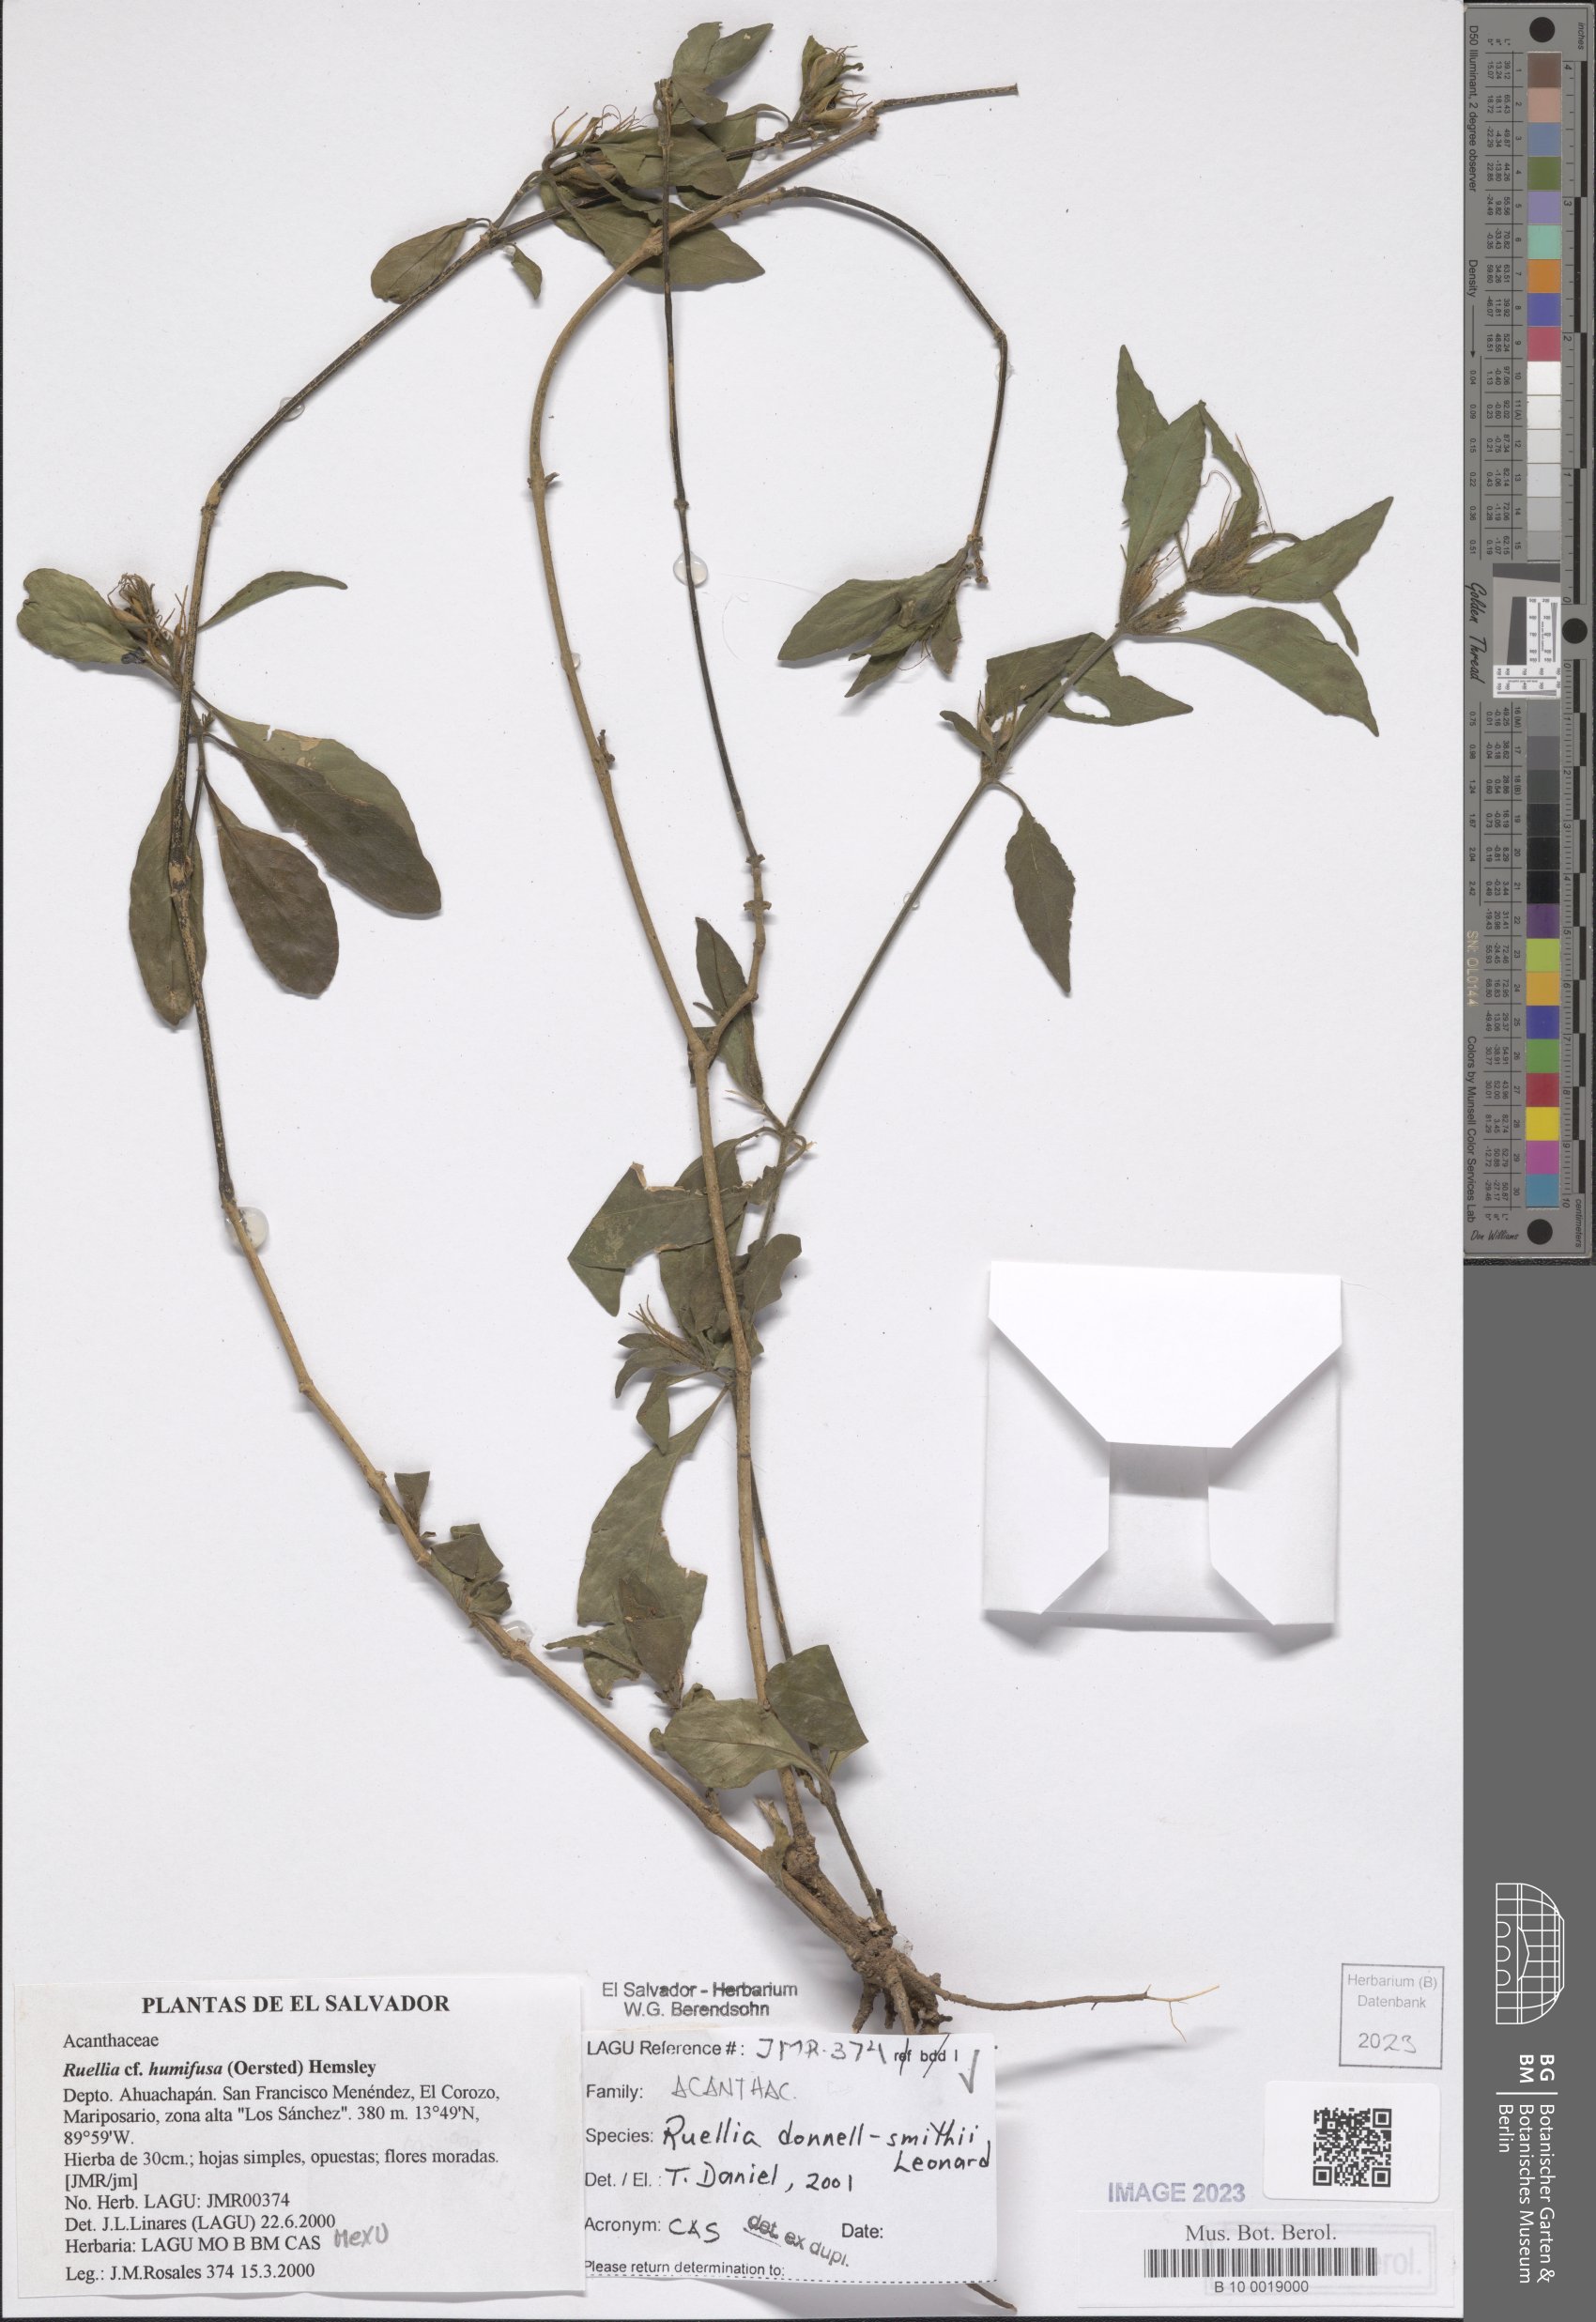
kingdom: Plantae
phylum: Tracheophyta
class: Magnoliopsida
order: Lamiales
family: Acanthaceae
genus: Ruellia
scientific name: Ruellia donnell-smithii
